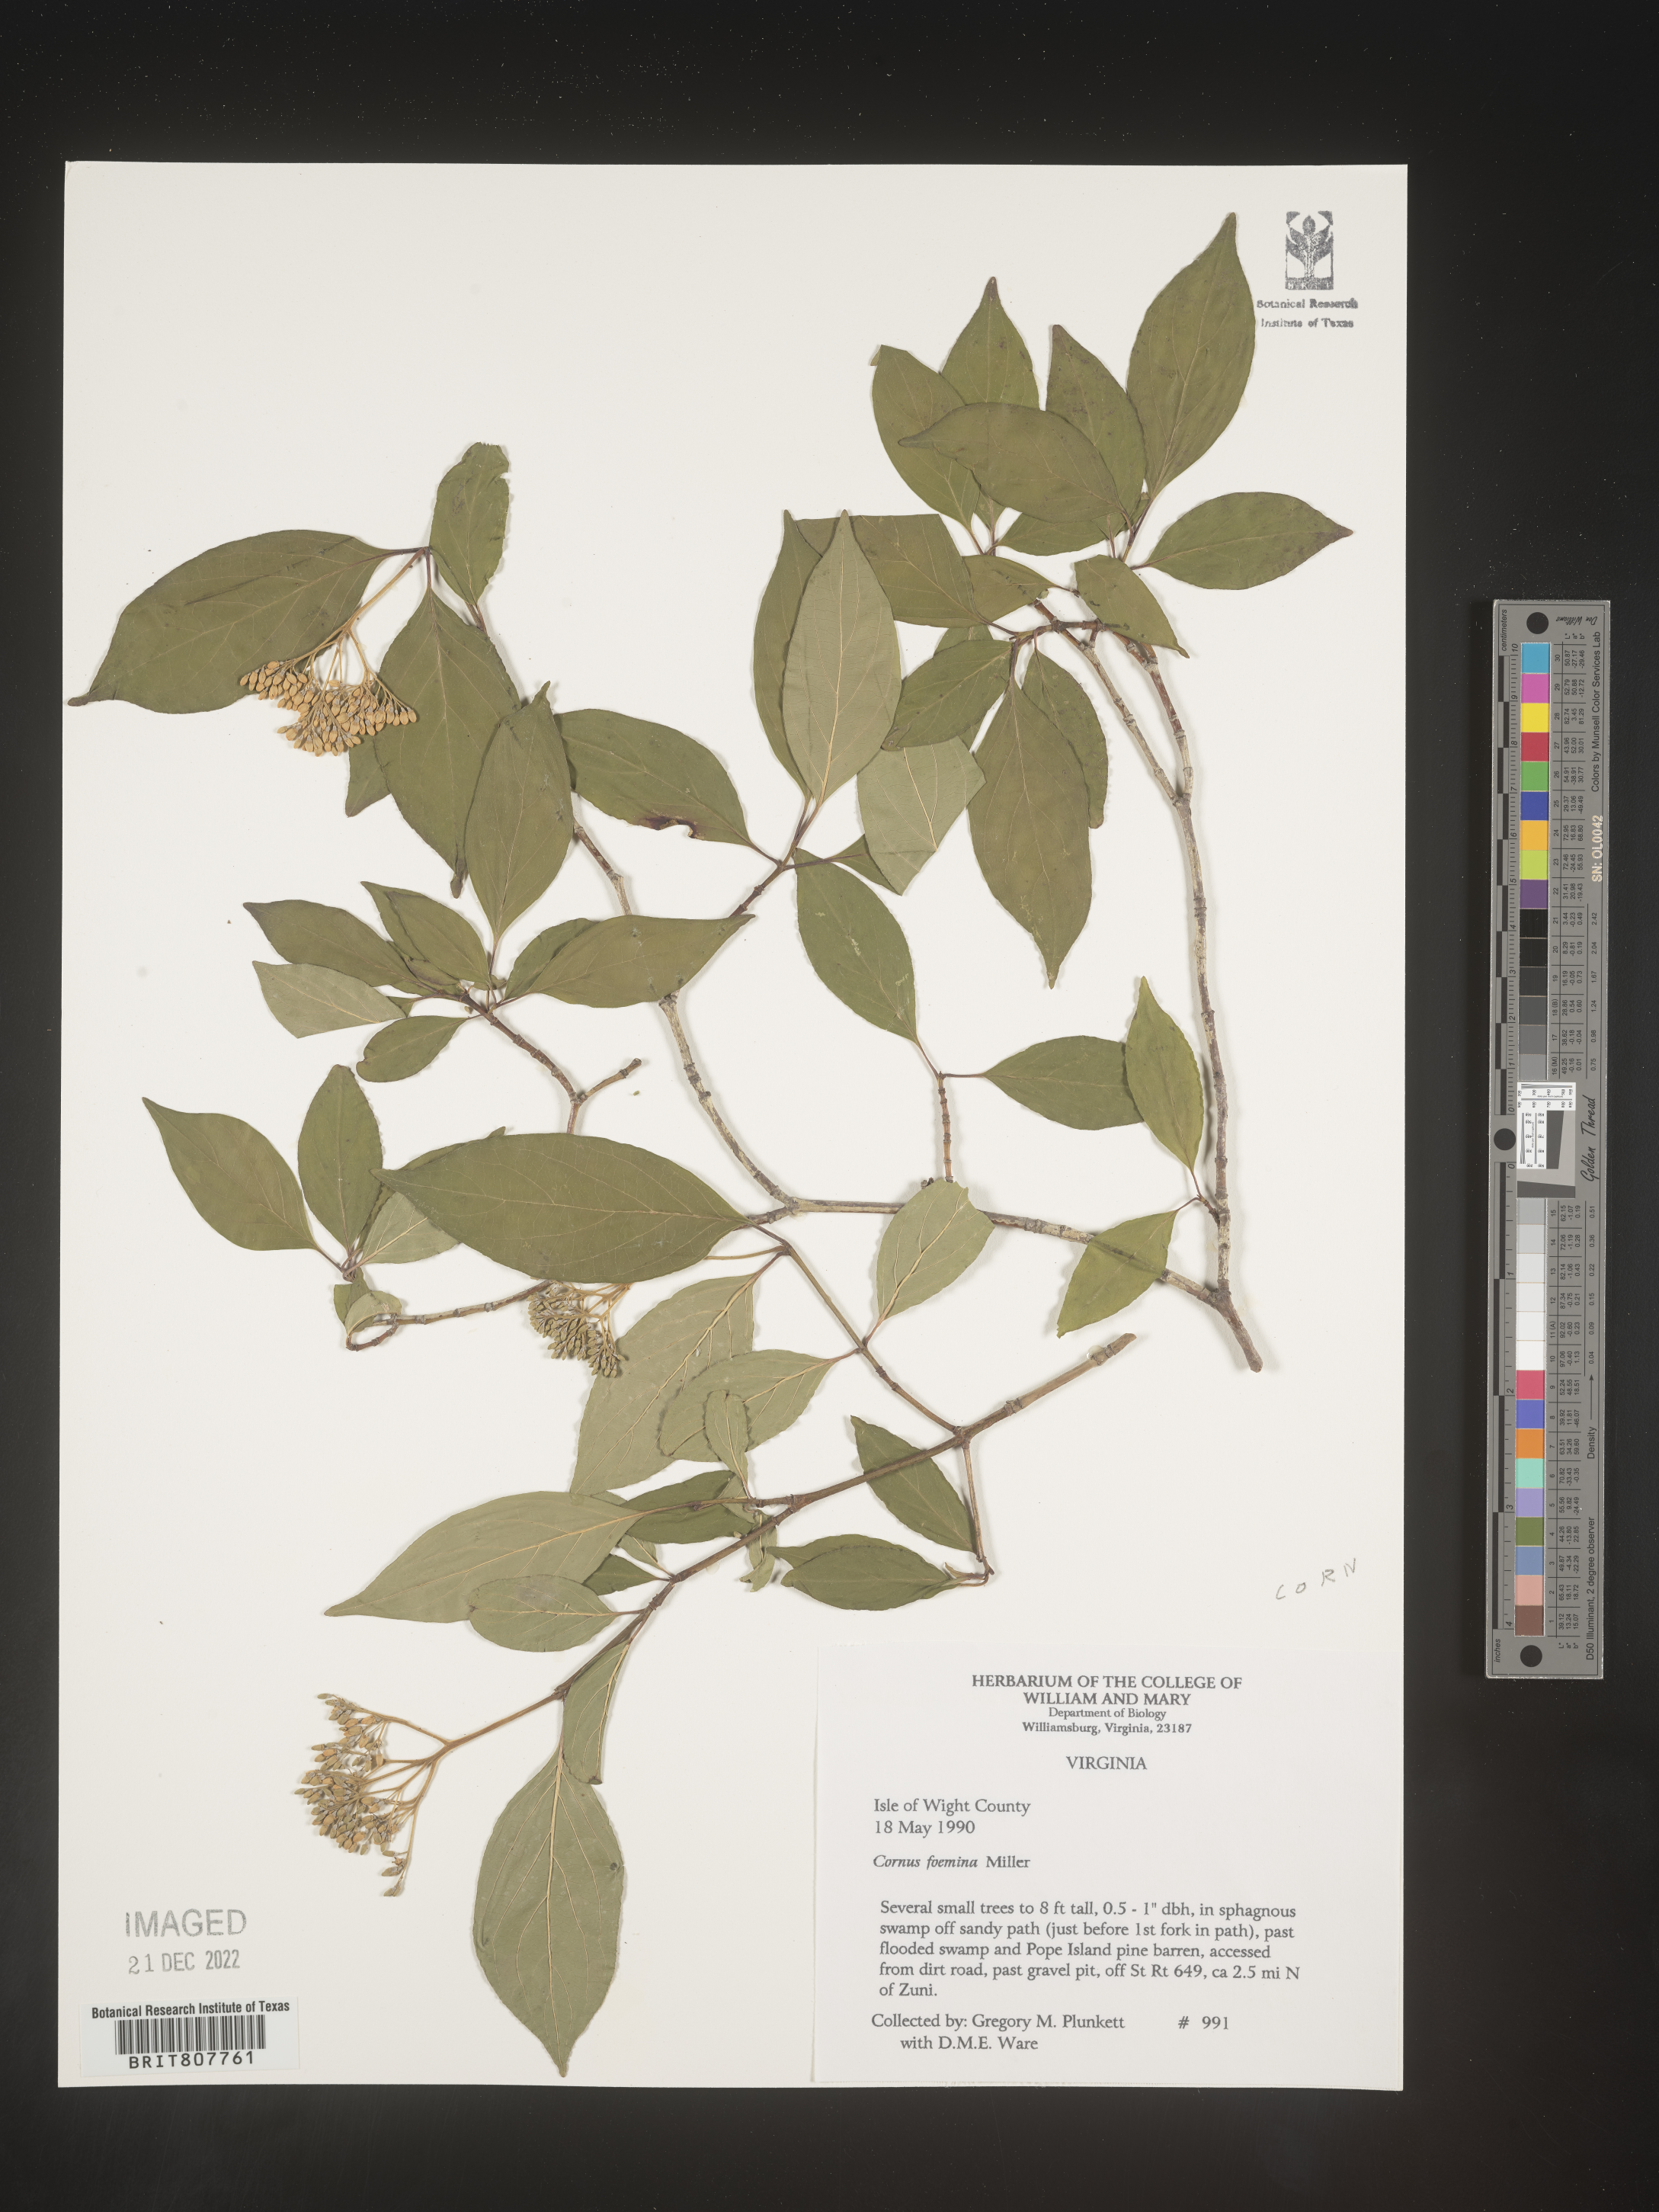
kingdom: Plantae
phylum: Tracheophyta
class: Magnoliopsida
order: Cornales
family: Cornaceae
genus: Cornus
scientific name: Cornus foemina
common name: Swamp dogwood
